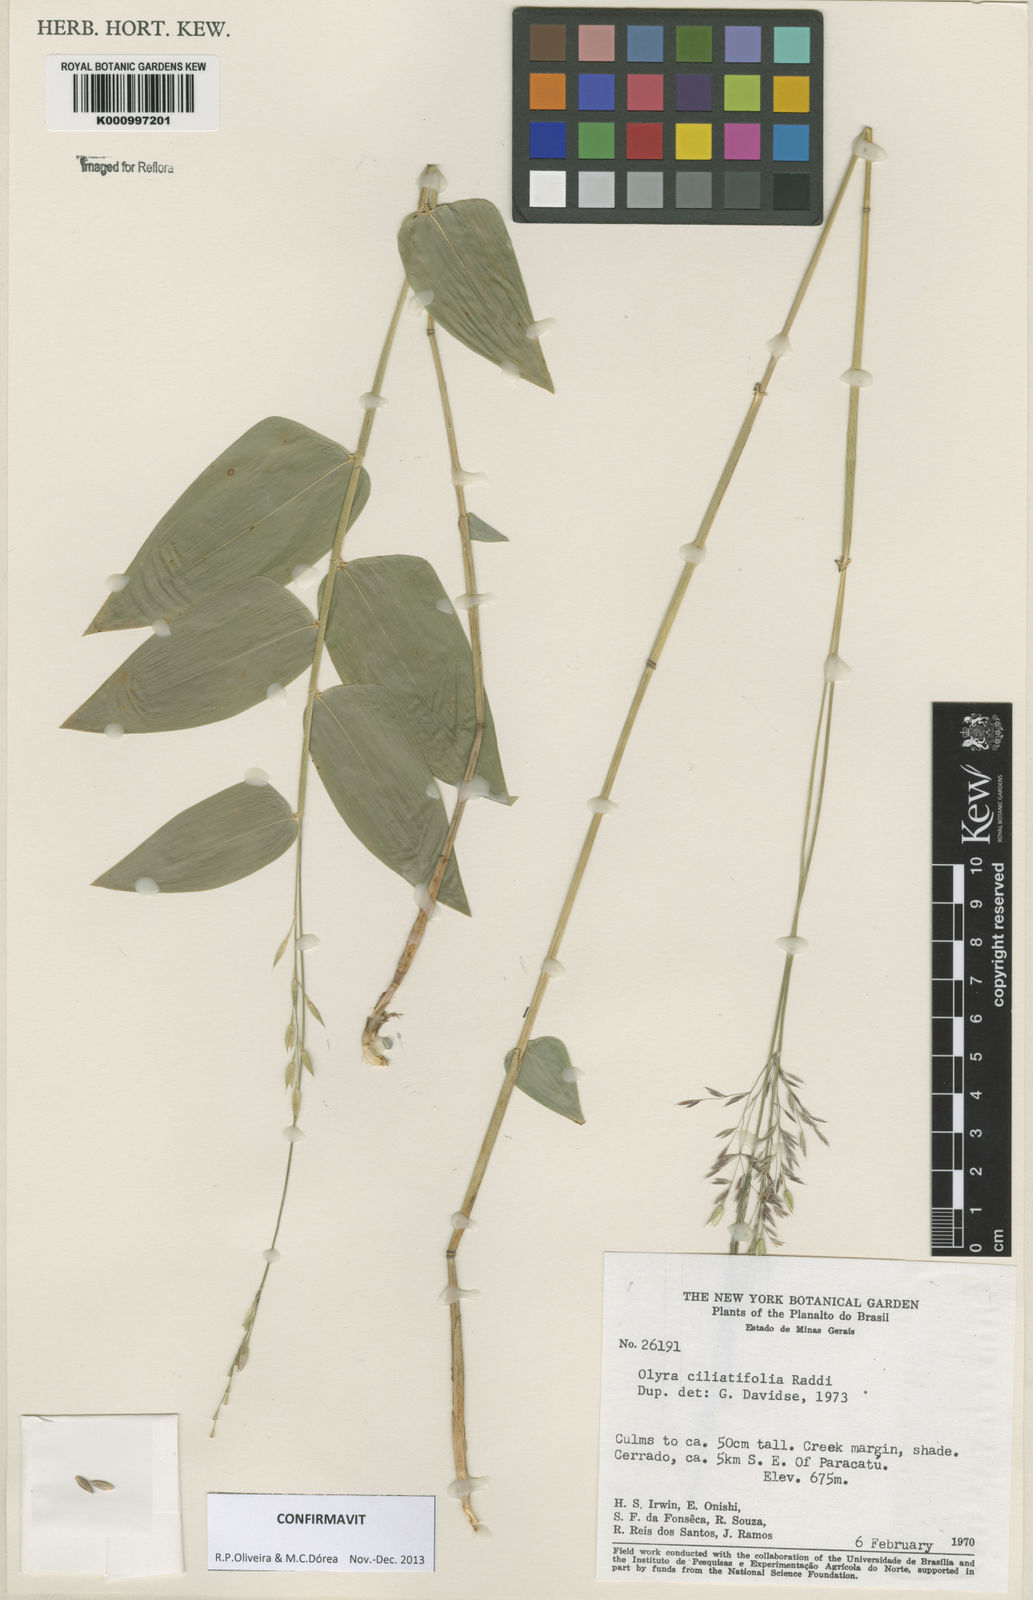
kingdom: Plantae
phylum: Tracheophyta
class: Liliopsida
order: Poales
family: Poaceae
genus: Olyra
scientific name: Olyra ciliatifolia
